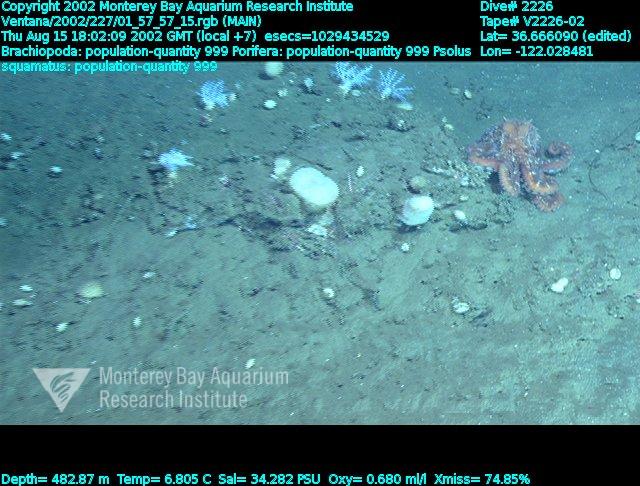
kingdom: Animalia
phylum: Porifera
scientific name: Porifera
